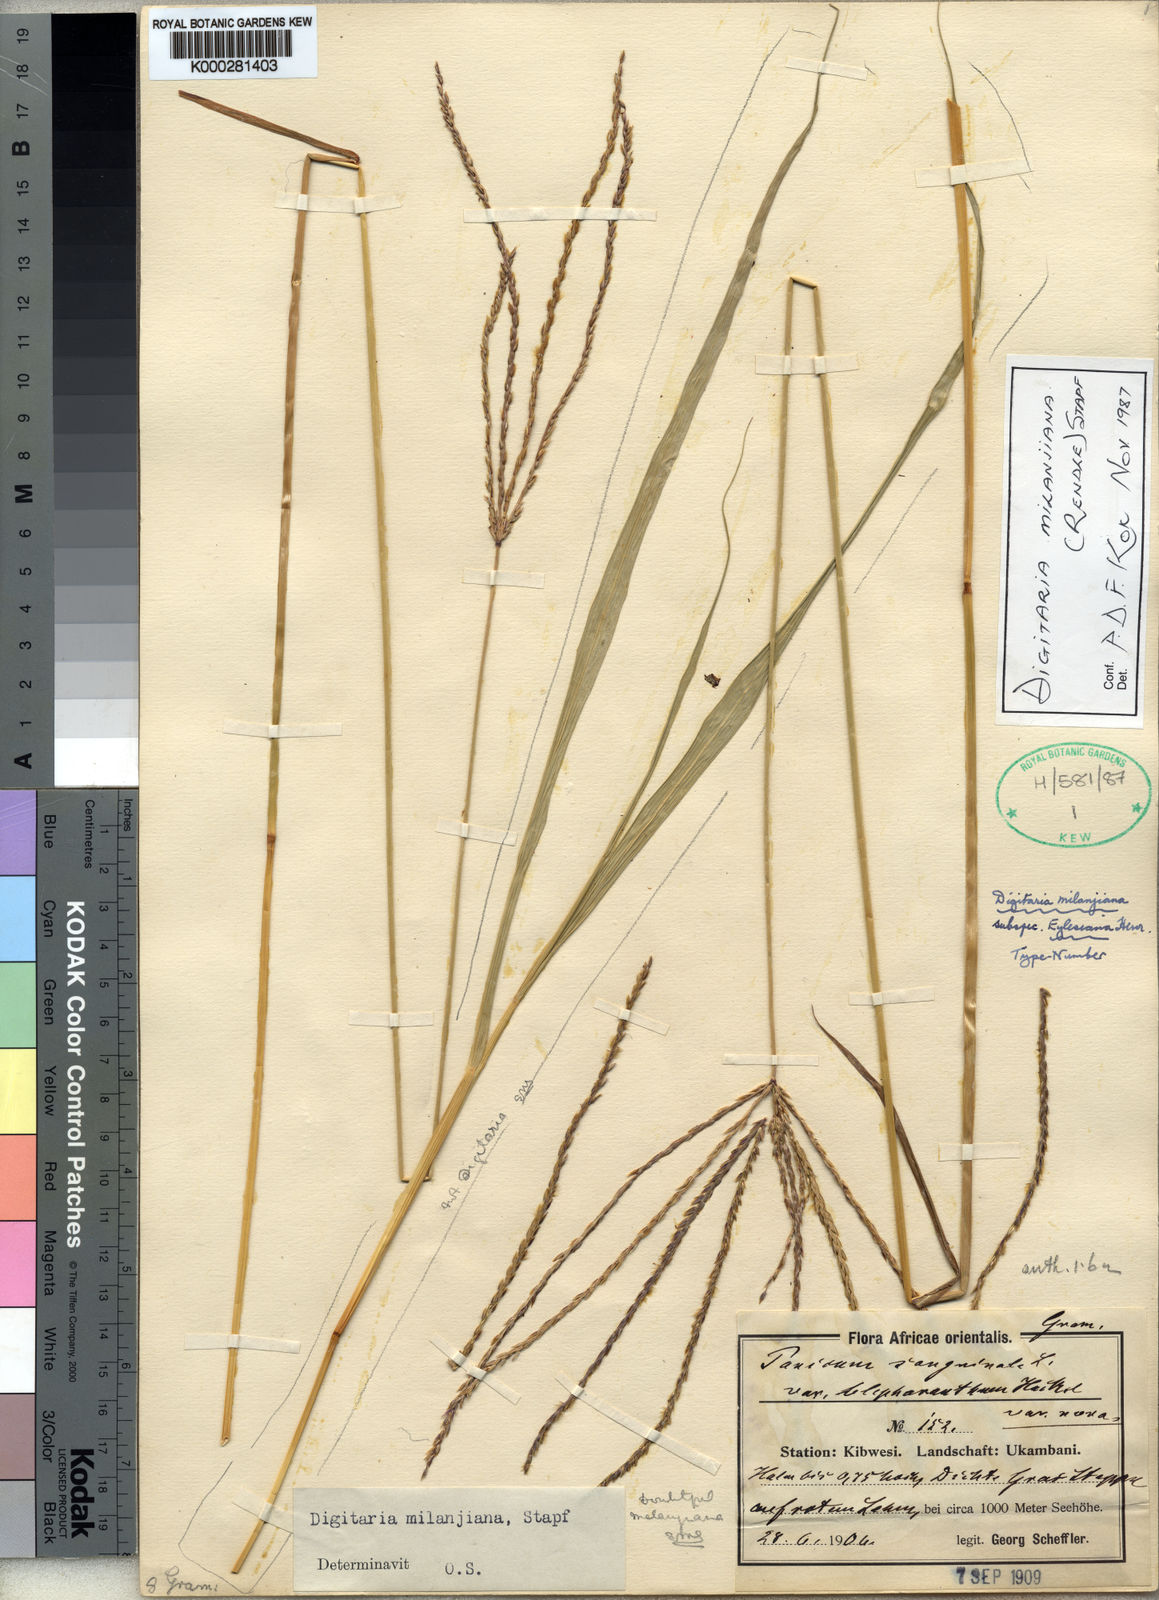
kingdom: Plantae
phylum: Tracheophyta
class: Liliopsida
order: Poales
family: Poaceae
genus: Digitaria
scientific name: Digitaria milanjiana
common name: Madagascar crabgrass
